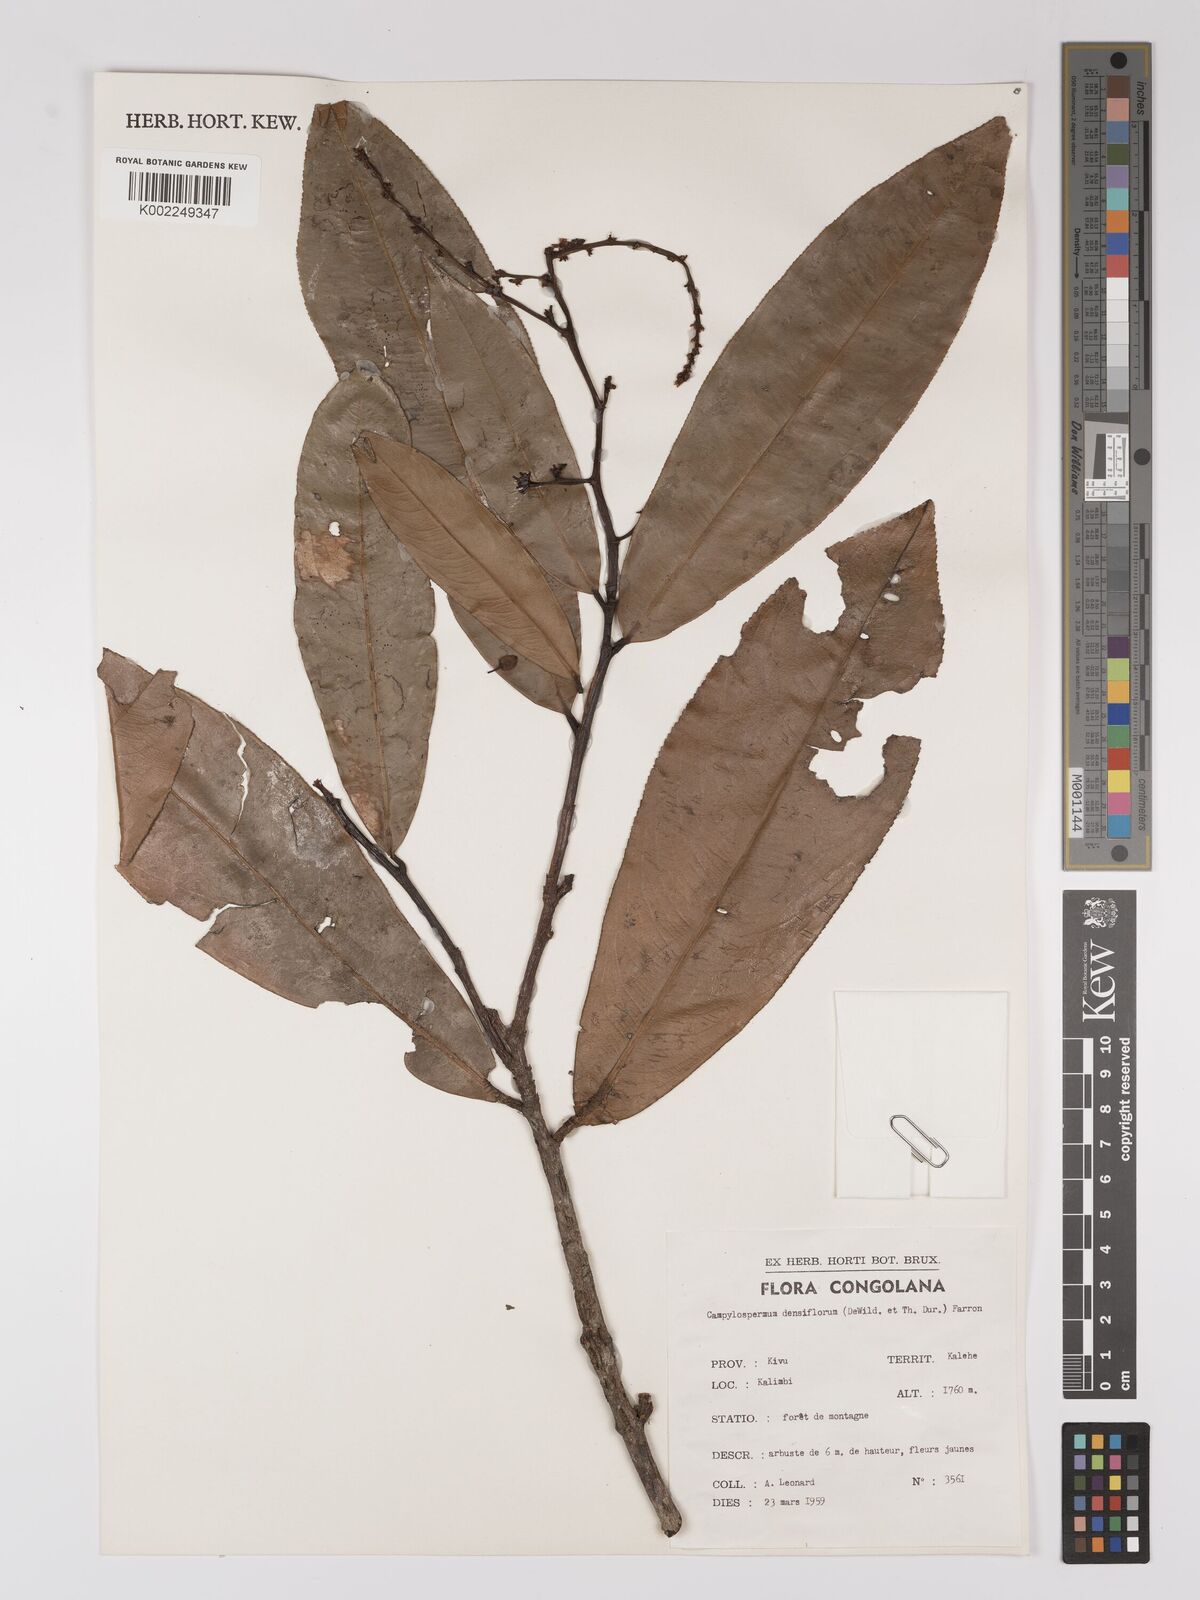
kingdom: Plantae
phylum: Tracheophyta
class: Magnoliopsida
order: Malpighiales
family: Ochnaceae
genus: Gomphia
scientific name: Gomphia densiflora
